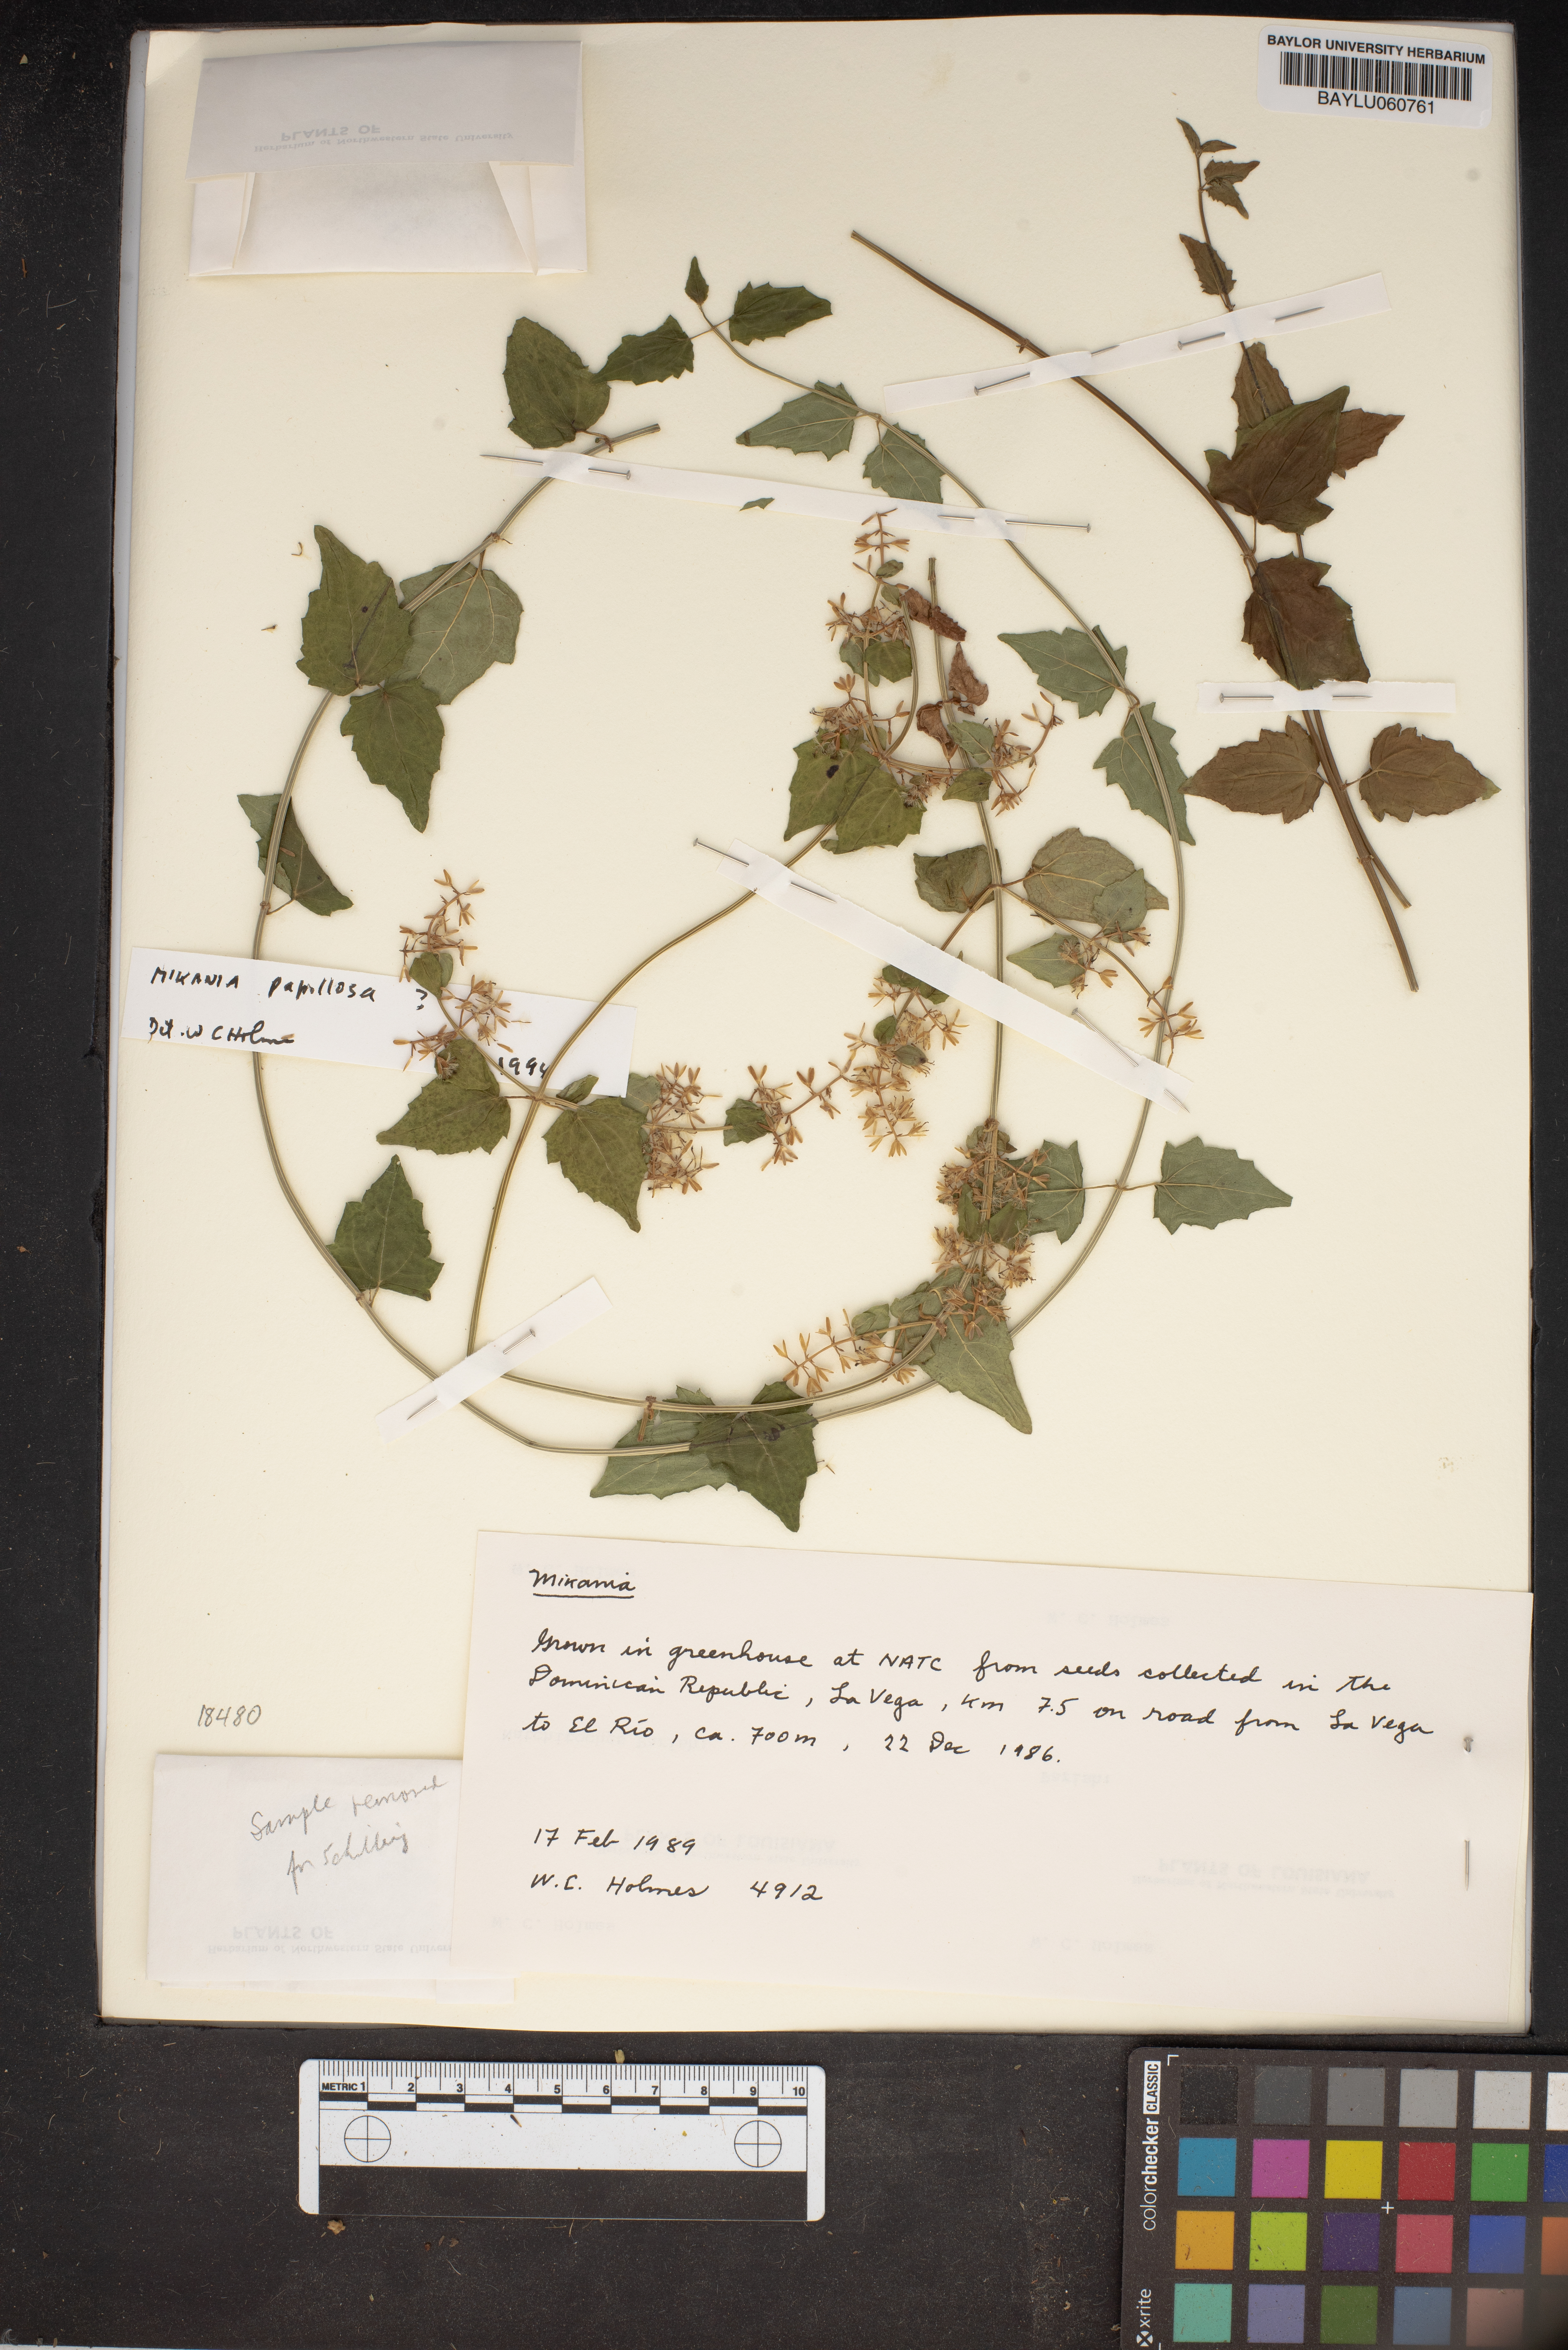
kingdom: Plantae
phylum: Tracheophyta
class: Magnoliopsida
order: Asterales
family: Asteraceae
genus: Mikania
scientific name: Mikania papillosa
